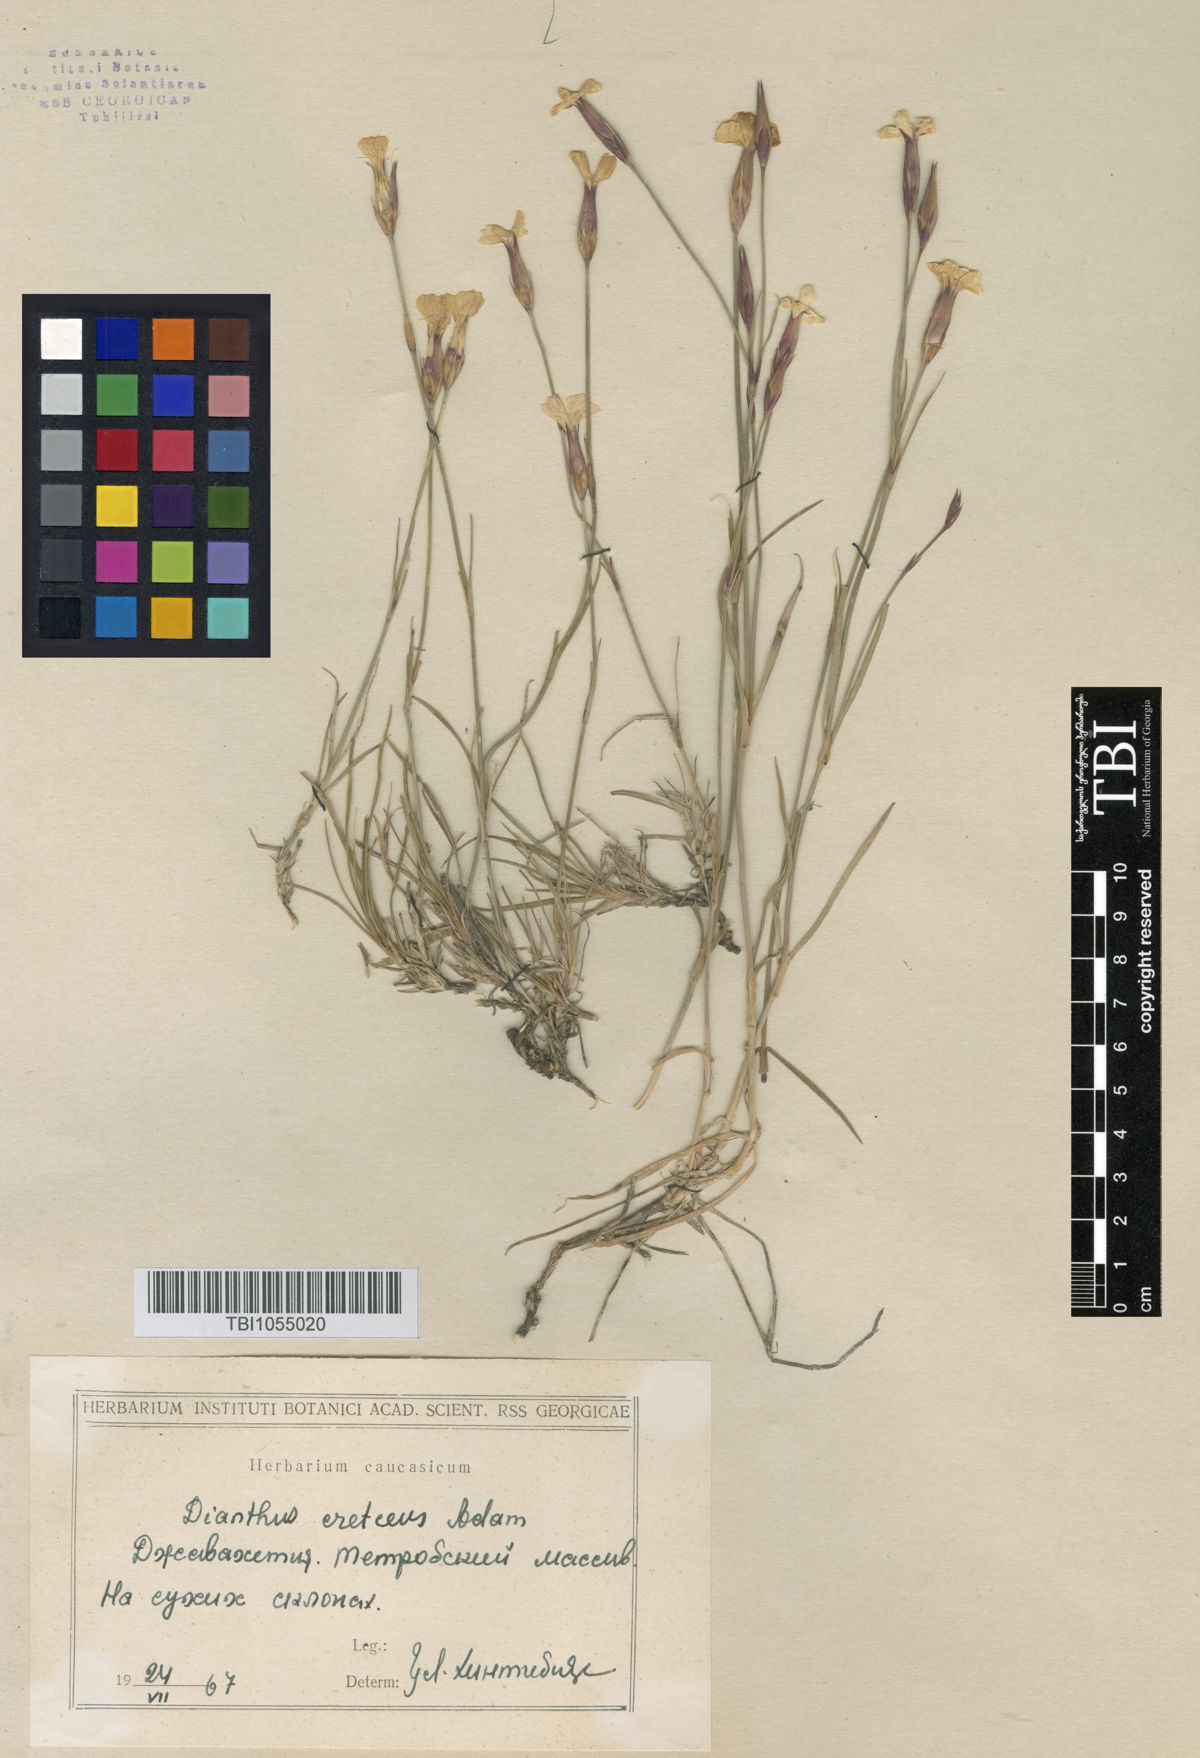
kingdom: Plantae
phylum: Tracheophyta
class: Magnoliopsida
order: Caryophyllales
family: Caryophyllaceae
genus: Dianthus
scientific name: Dianthus cretaceus
